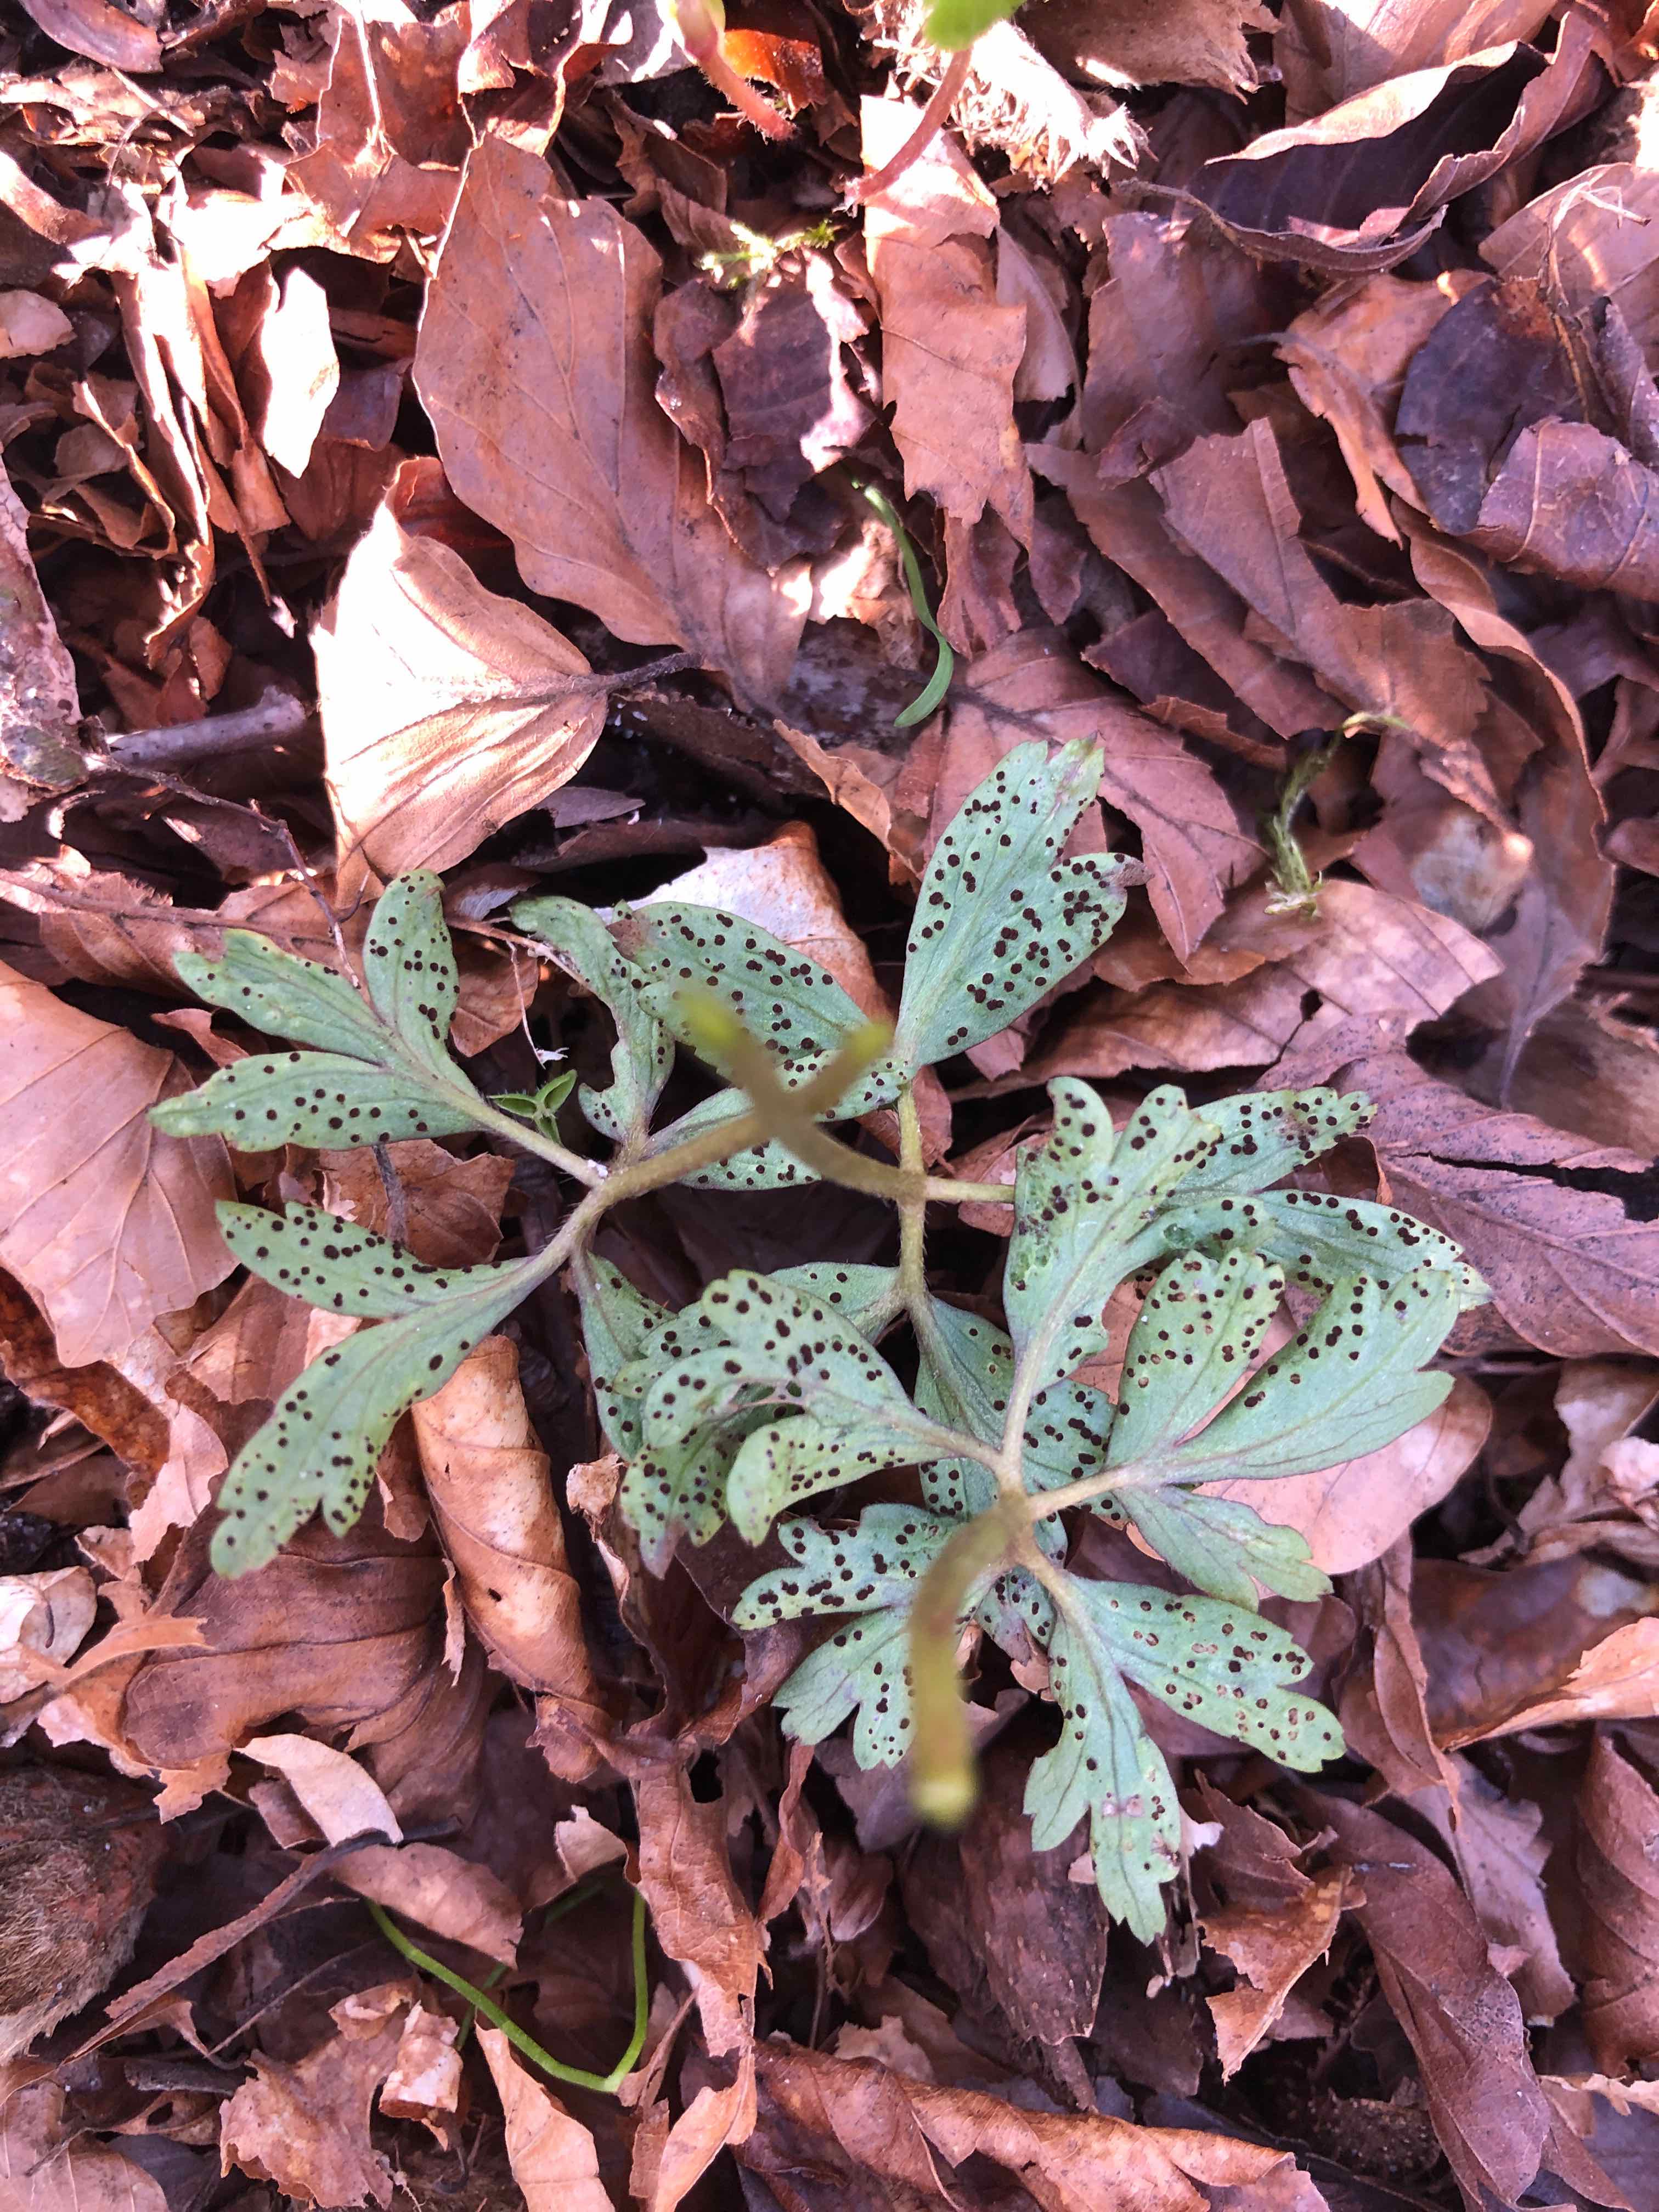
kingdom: Fungi
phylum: Basidiomycota
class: Pucciniomycetes
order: Pucciniales
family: Tranzscheliaceae
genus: Tranzschelia
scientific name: Tranzschelia anemones
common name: anemone-knæksporerust
